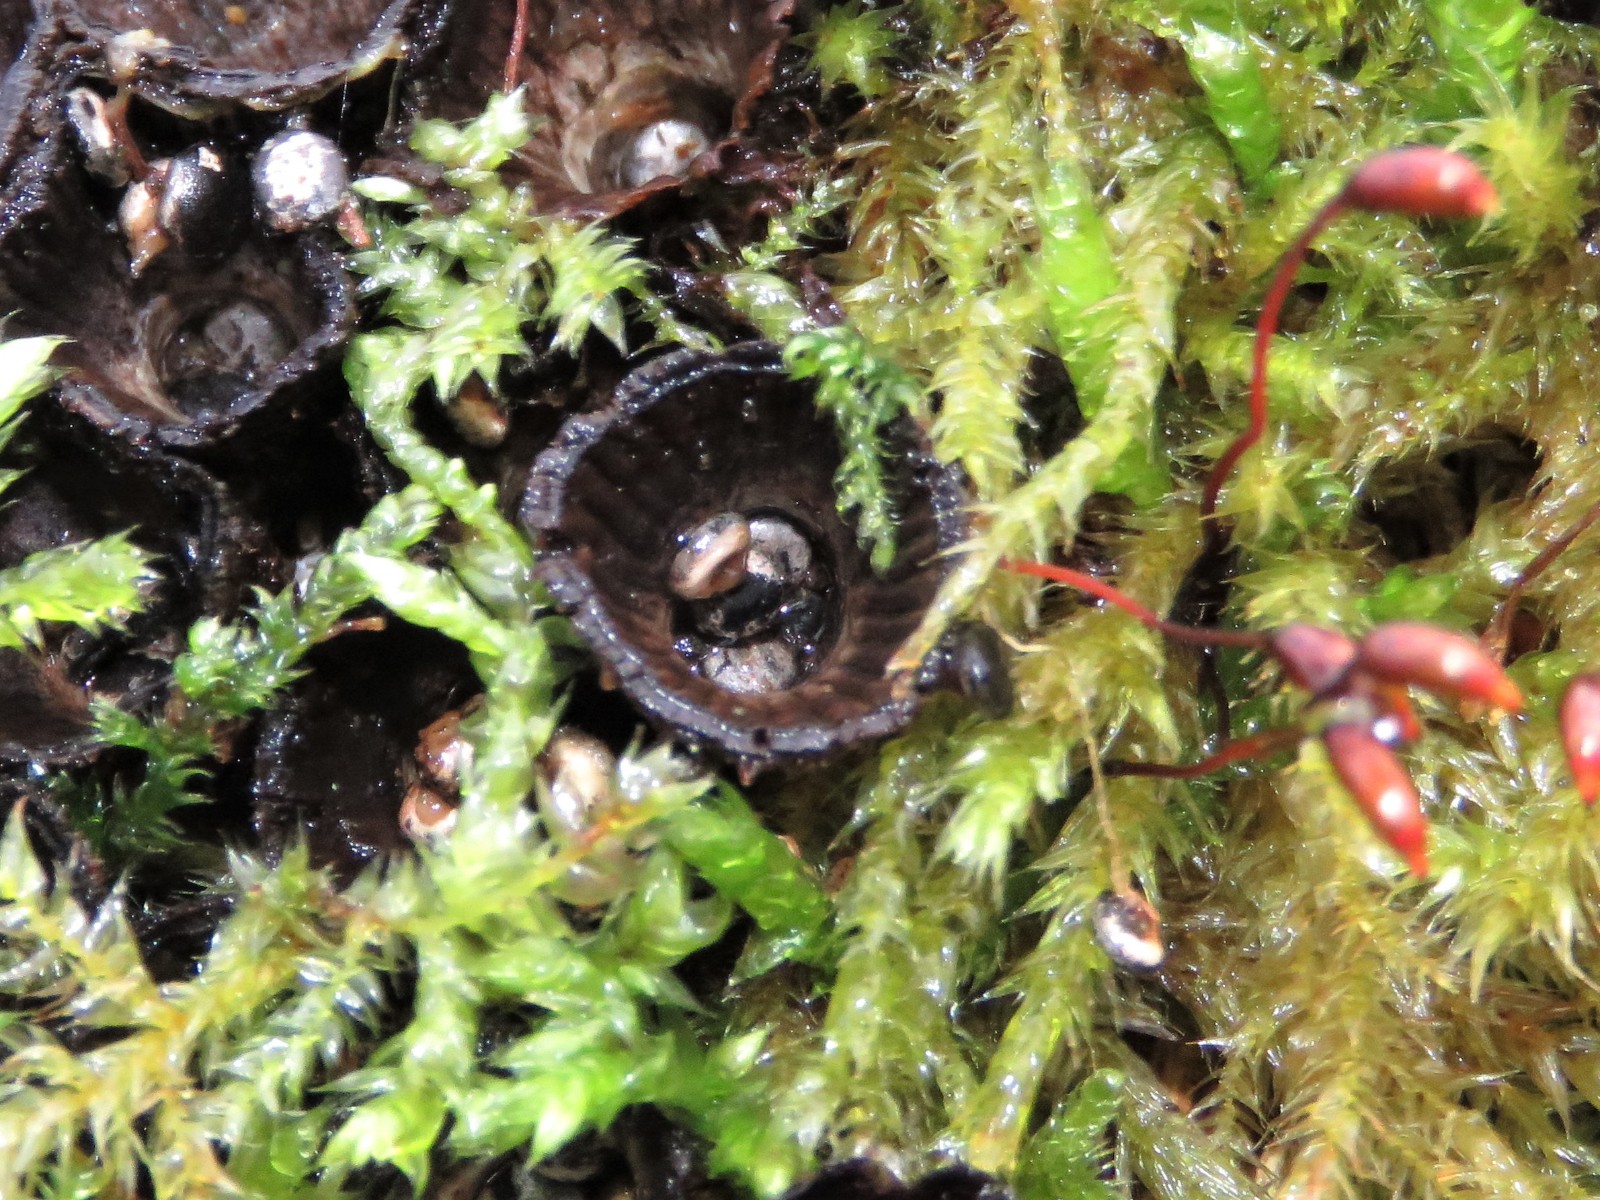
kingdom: Fungi
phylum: Basidiomycota
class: Agaricomycetes
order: Agaricales
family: Agaricaceae
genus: Cyathus
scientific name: Cyathus striatus
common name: stribet redesvamp
